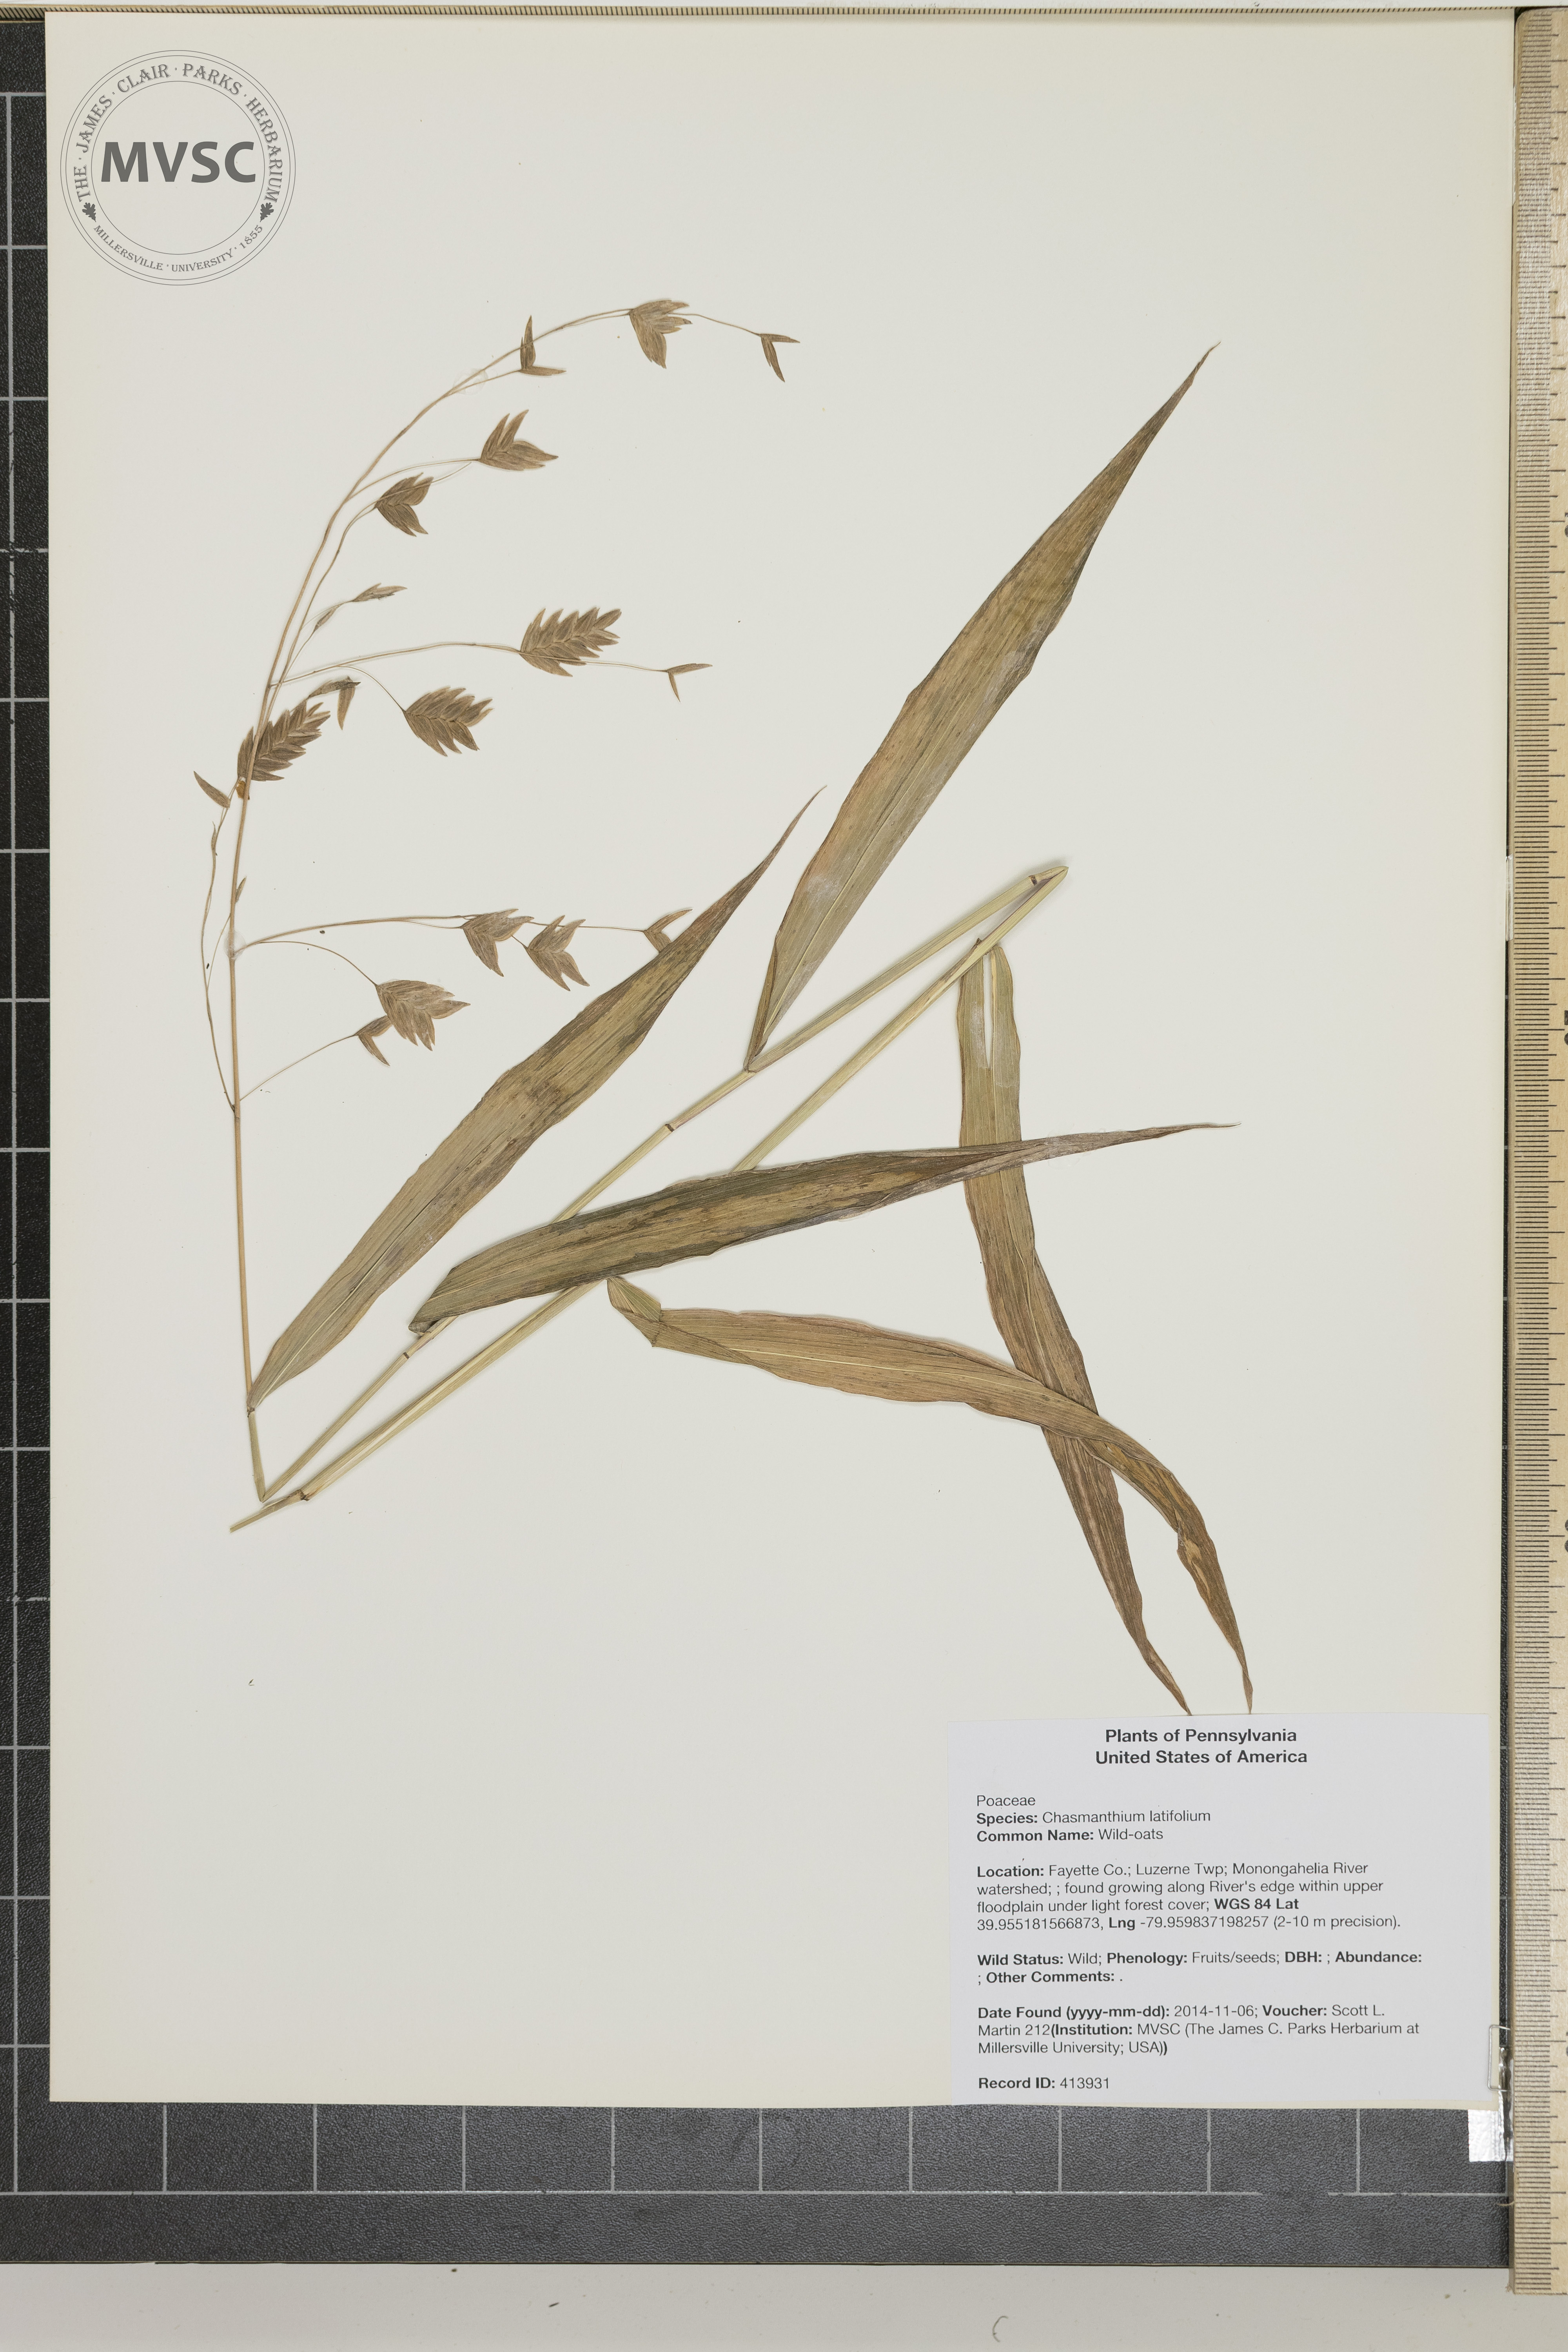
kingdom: Plantae
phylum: Tracheophyta
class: Liliopsida
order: Poales
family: Poaceae
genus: Chasmanthium
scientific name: Chasmanthium latifolium
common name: Wild-oats
